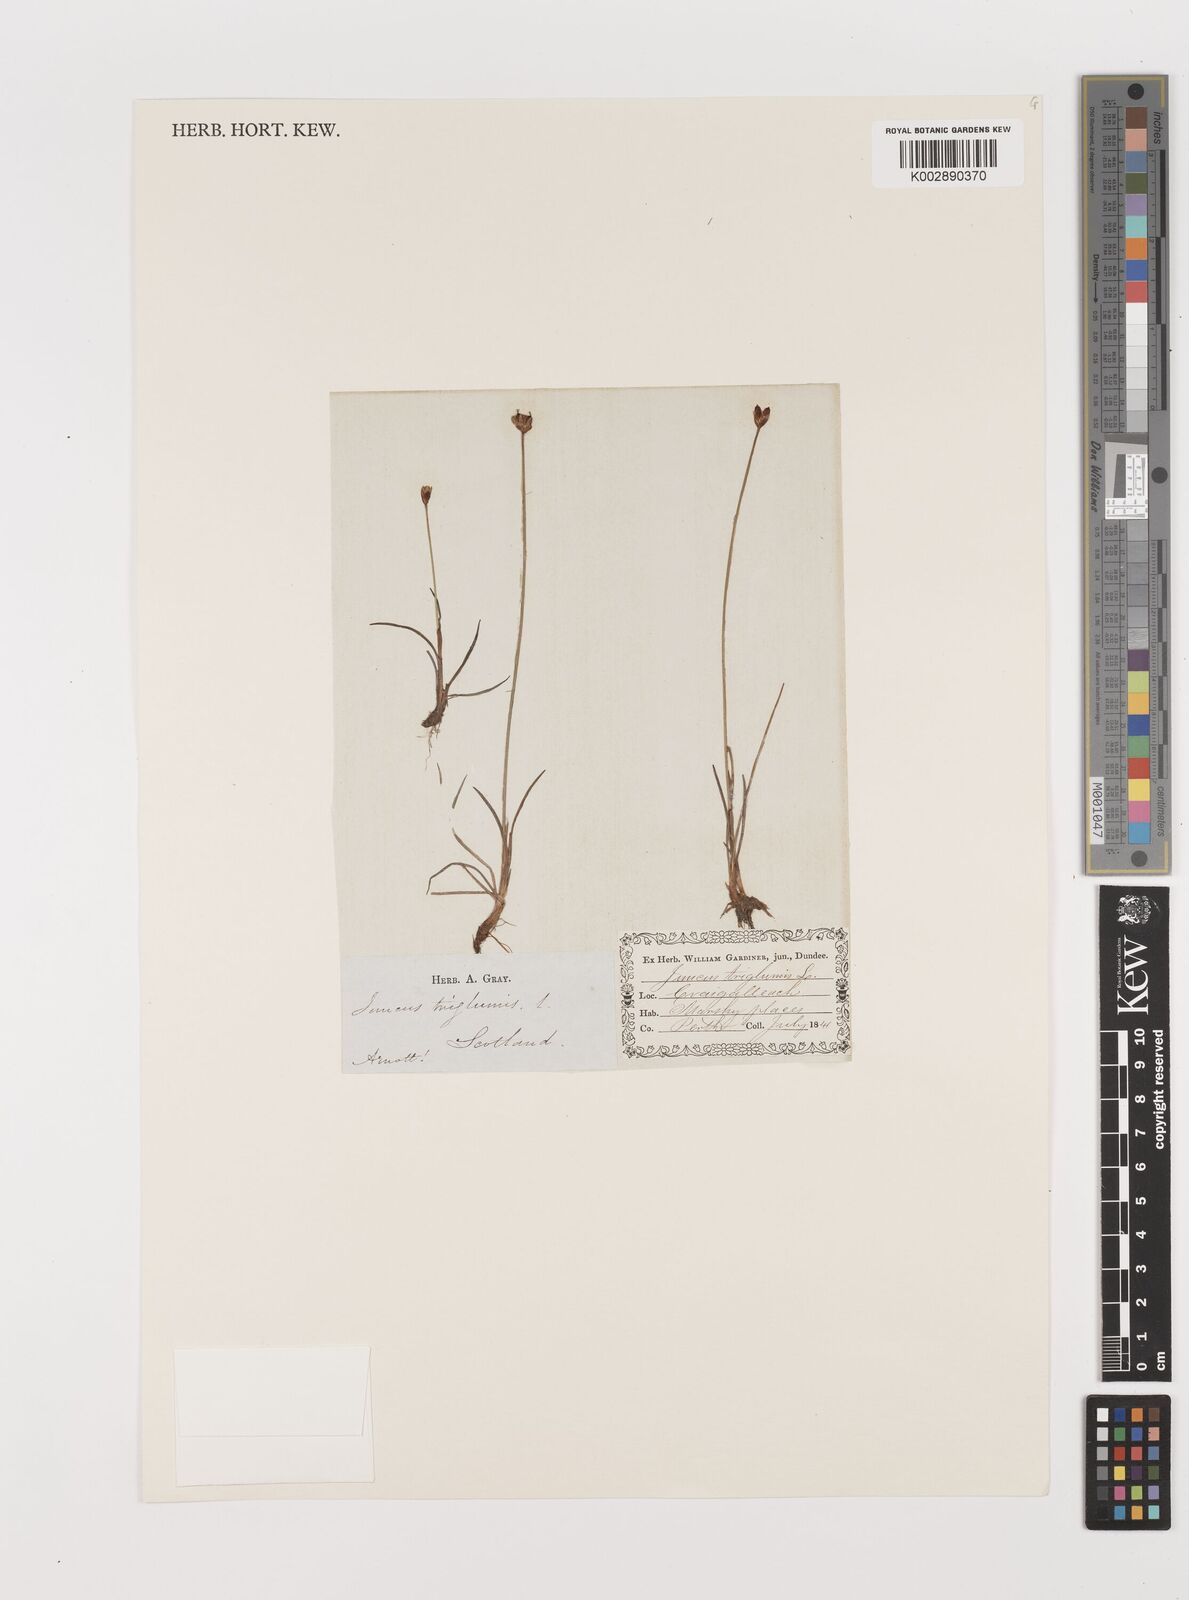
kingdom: Plantae
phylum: Tracheophyta
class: Liliopsida
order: Poales
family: Juncaceae
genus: Juncus
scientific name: Juncus triglumis
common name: Three-flowered rush
